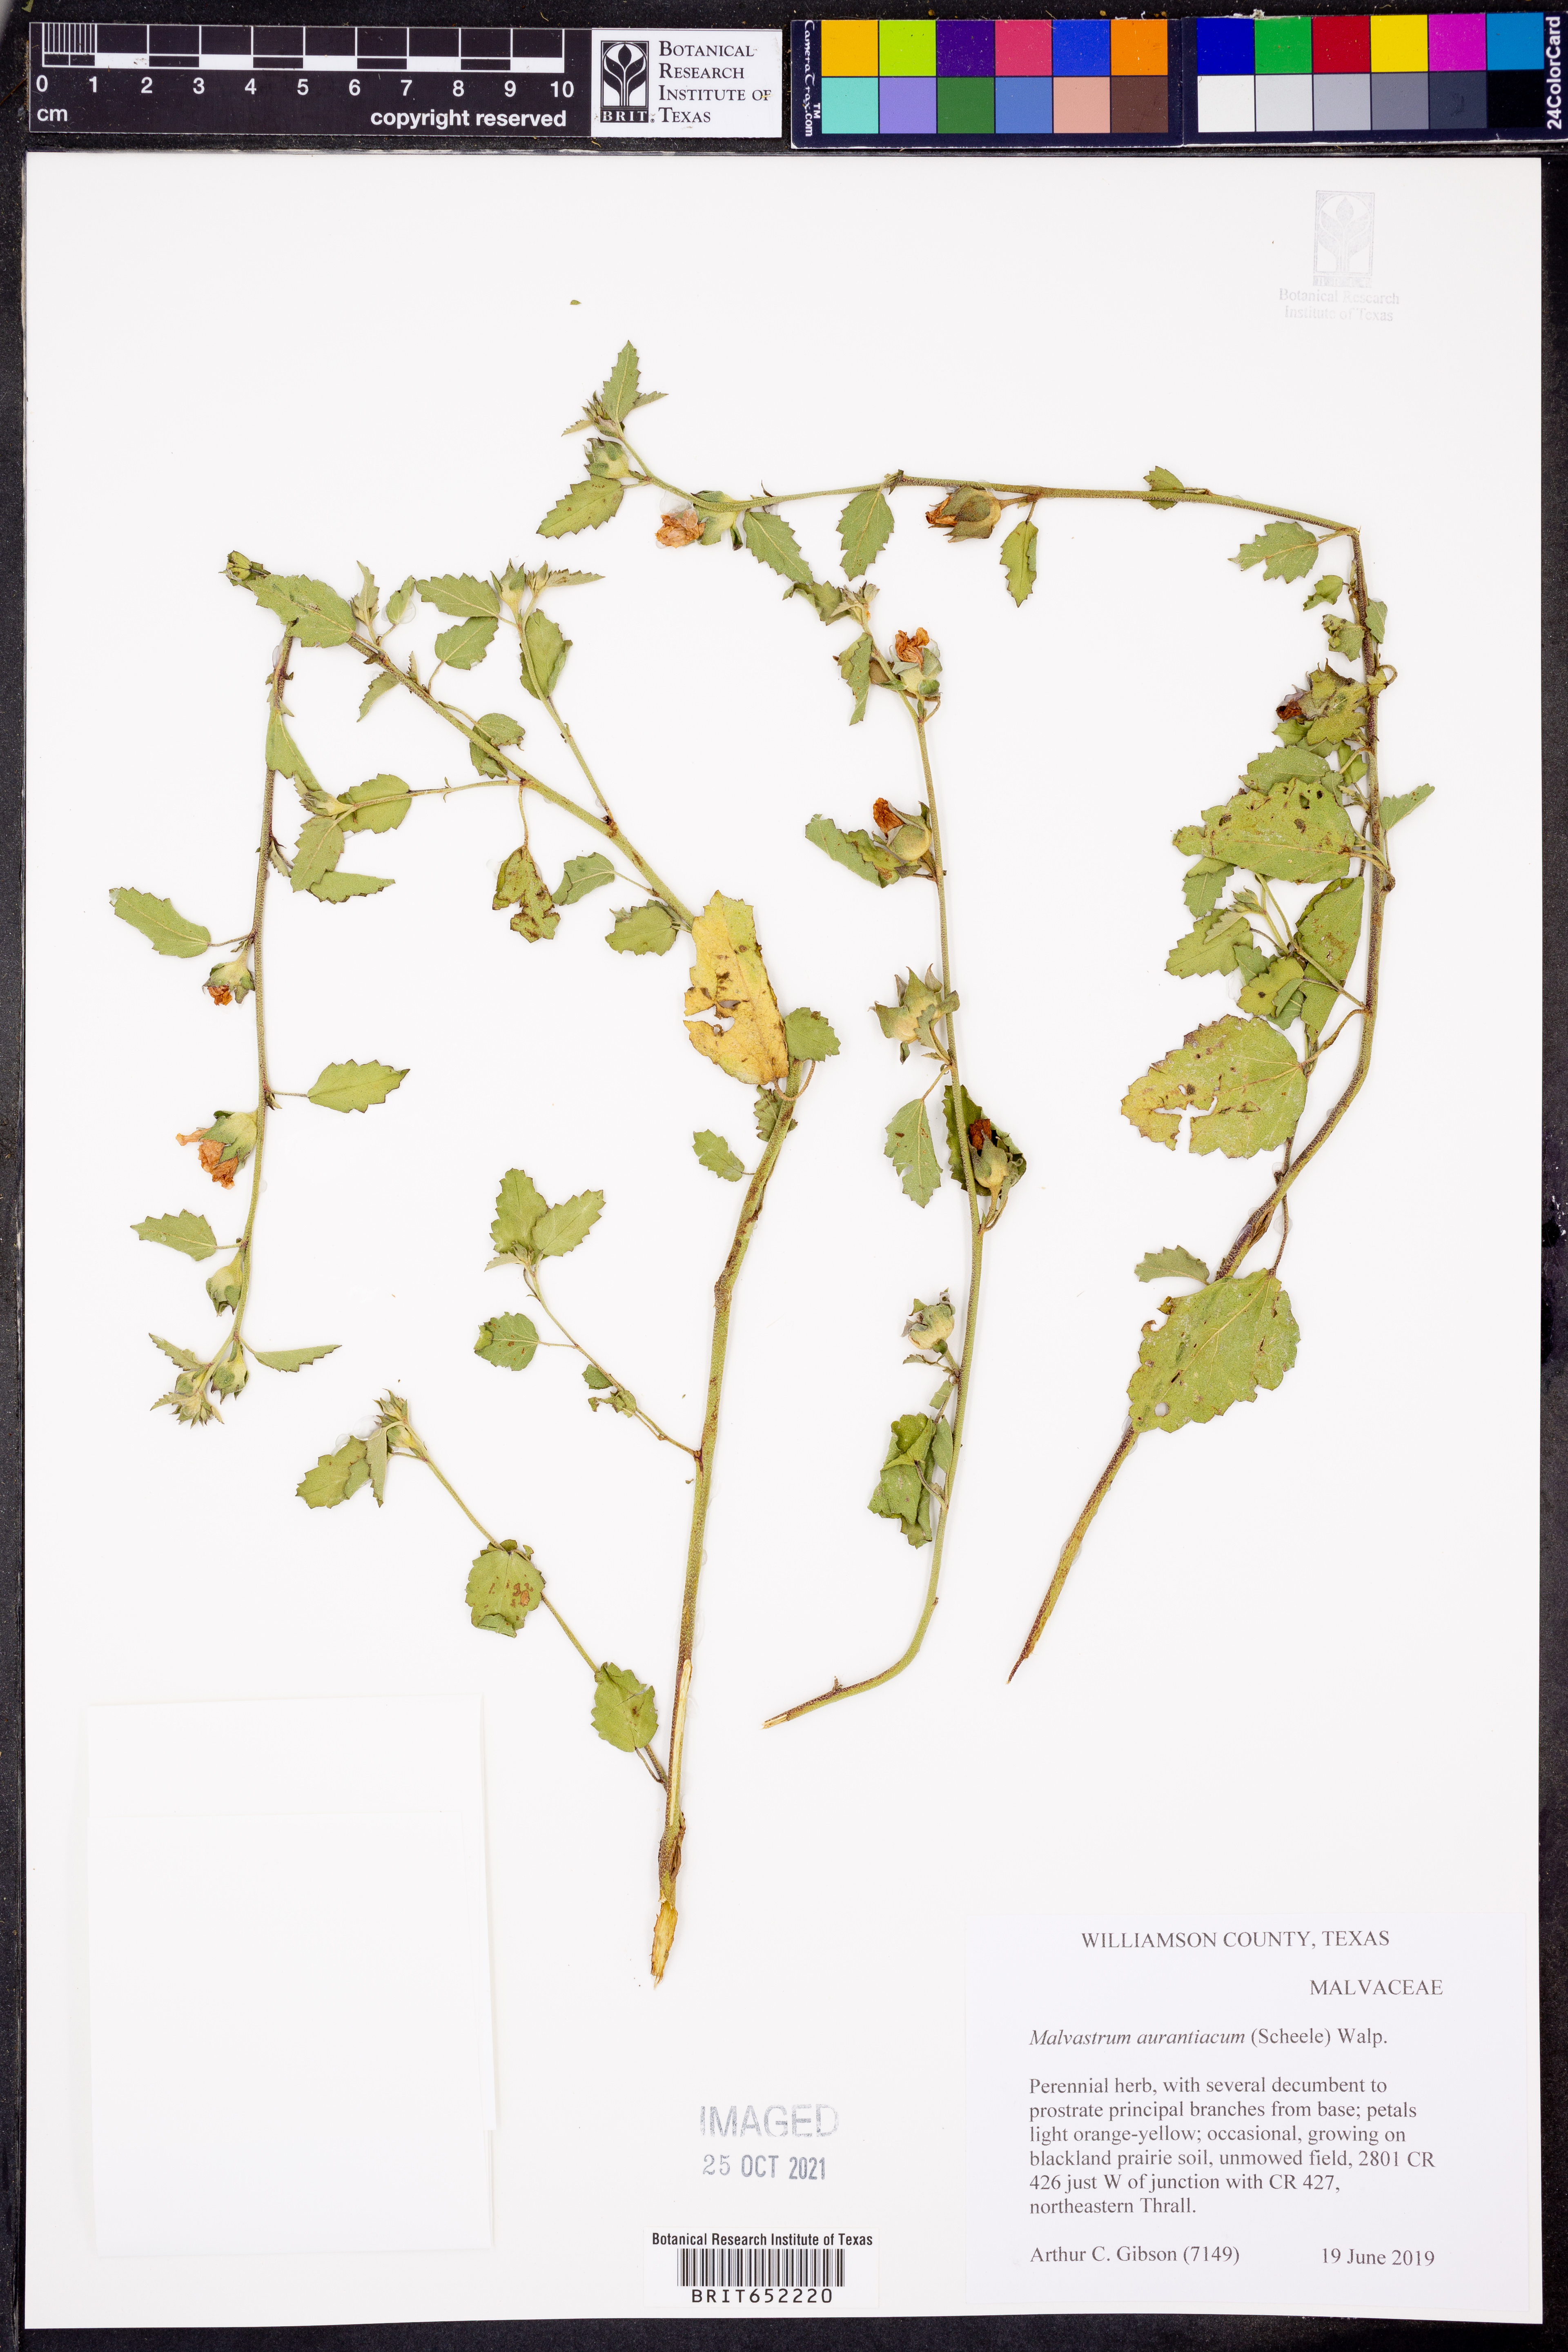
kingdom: Plantae
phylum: Tracheophyta
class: Magnoliopsida
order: Malvales
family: Malvaceae
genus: Malvastrum
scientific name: Malvastrum aurantiacum
